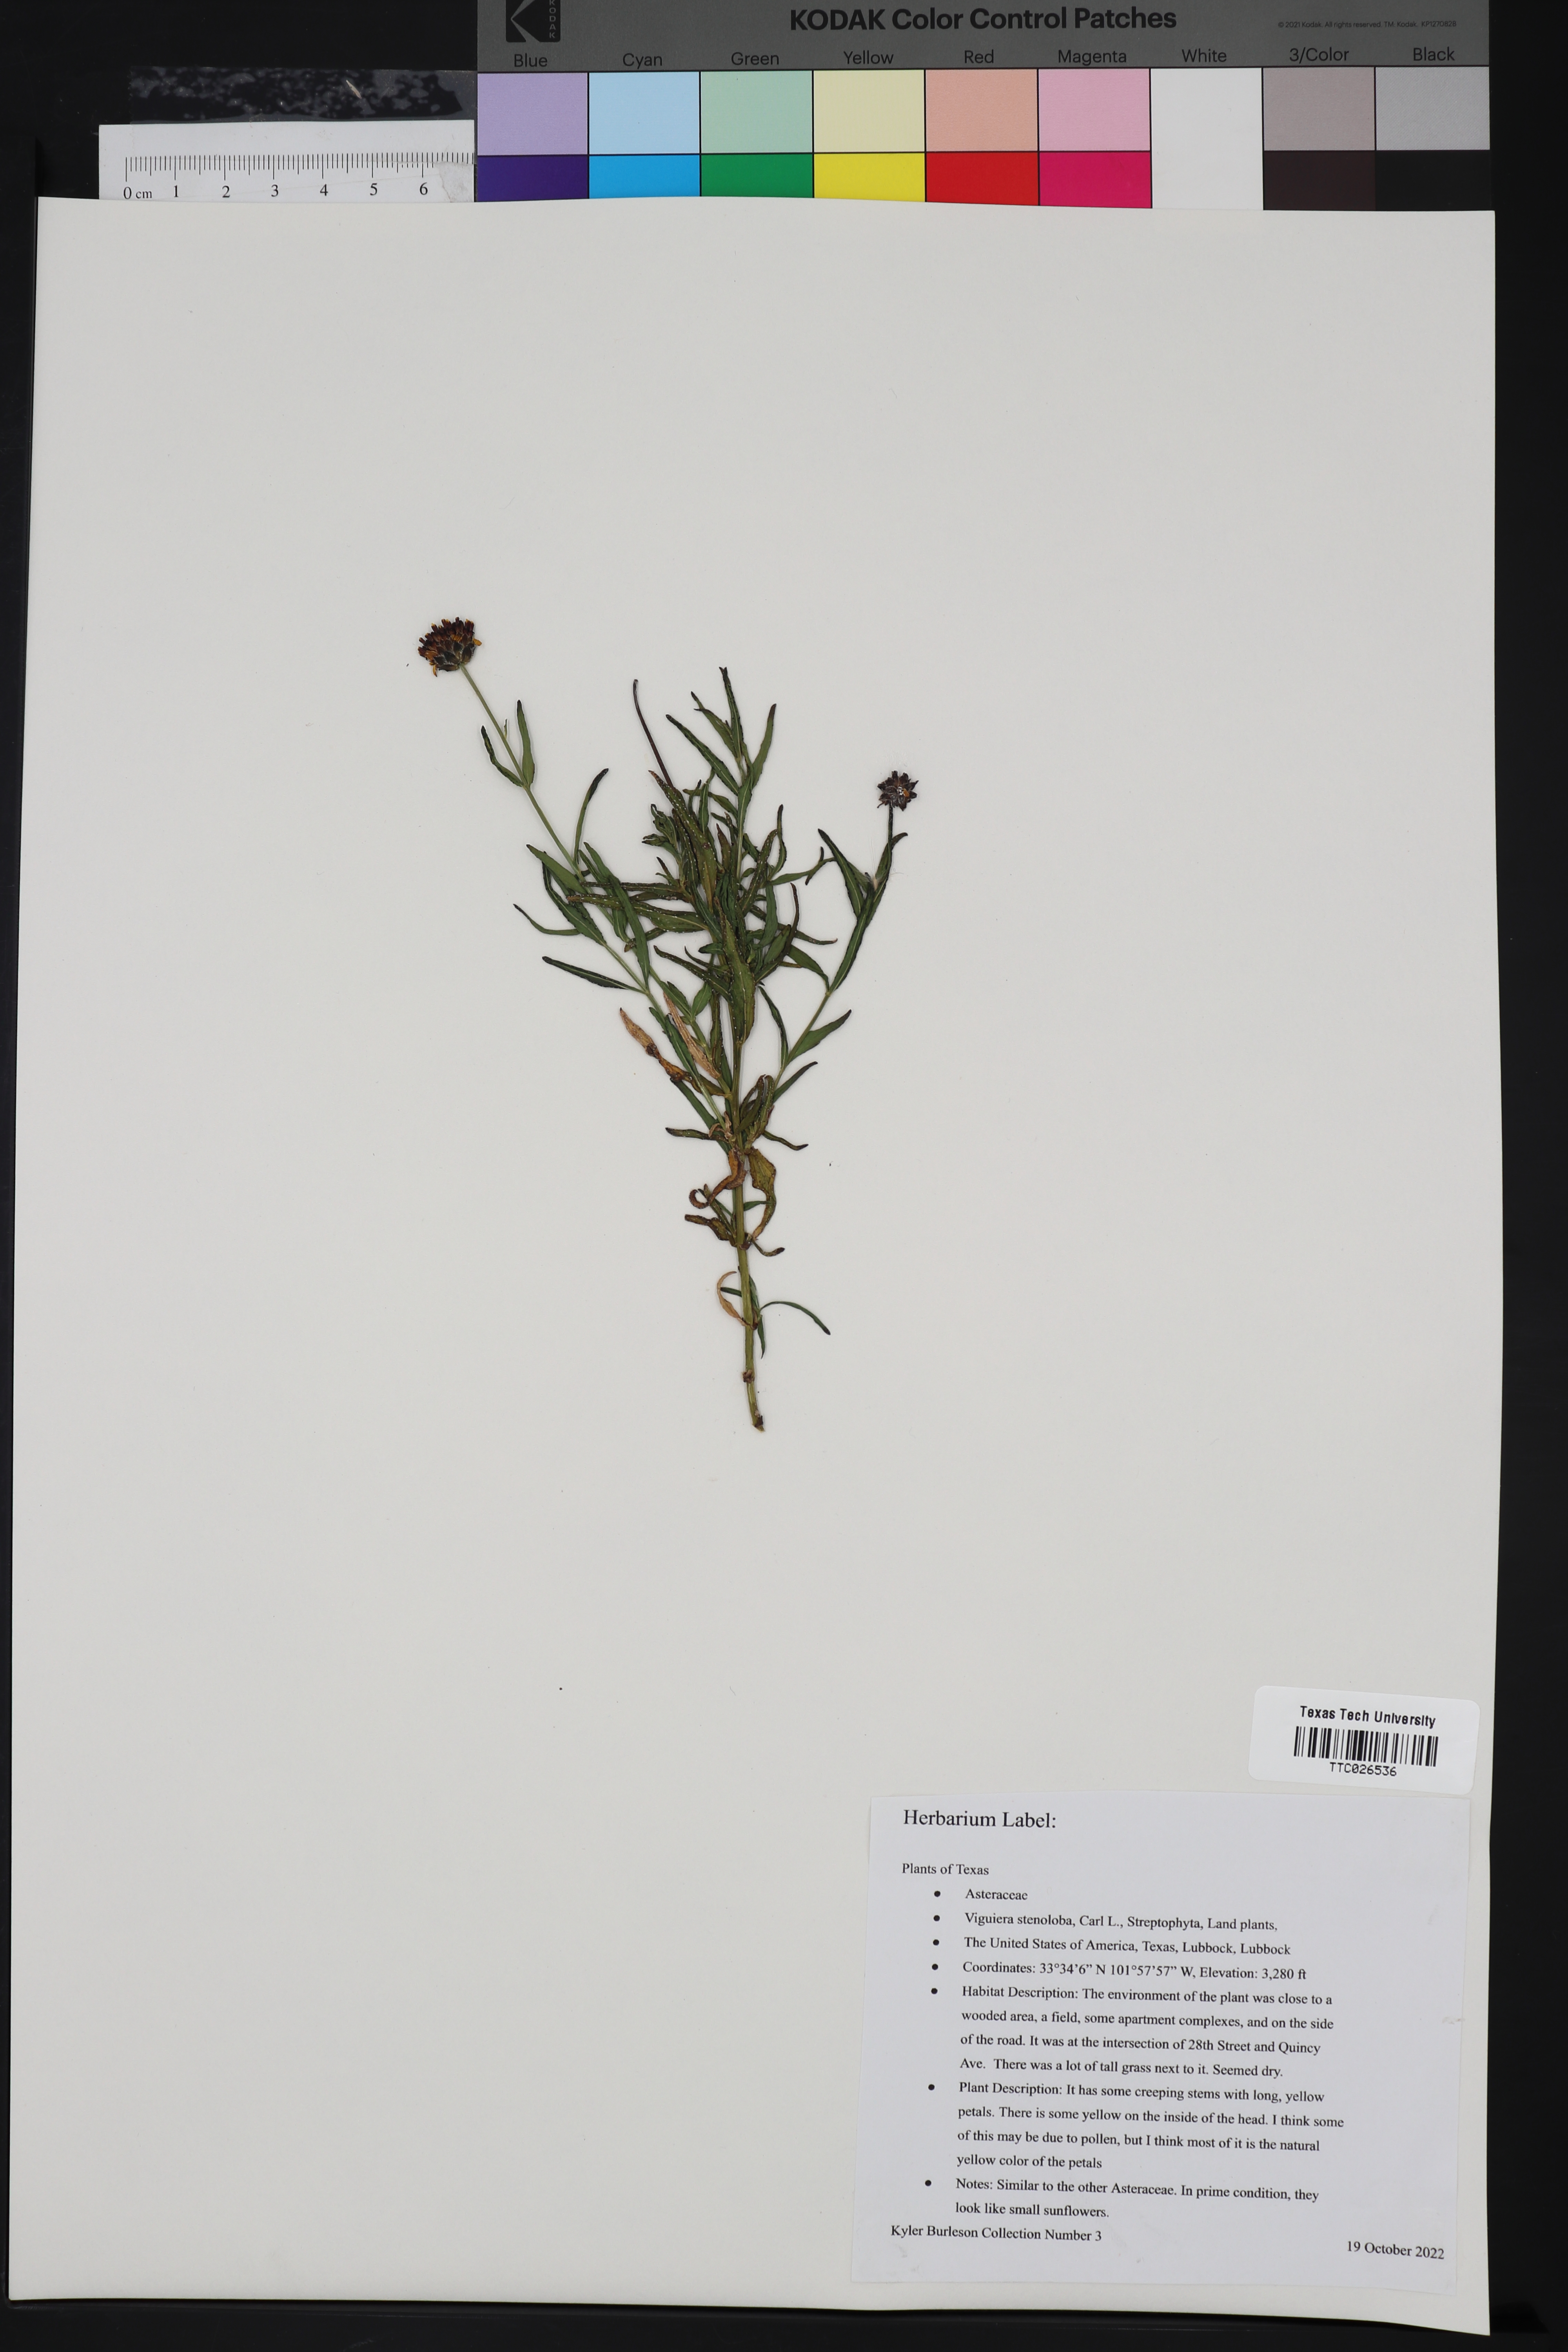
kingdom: Plantae
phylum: Tracheophyta
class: Magnoliopsida
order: Asterales
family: Asteraceae
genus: Sidneya
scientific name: Sidneya tenuifolia
